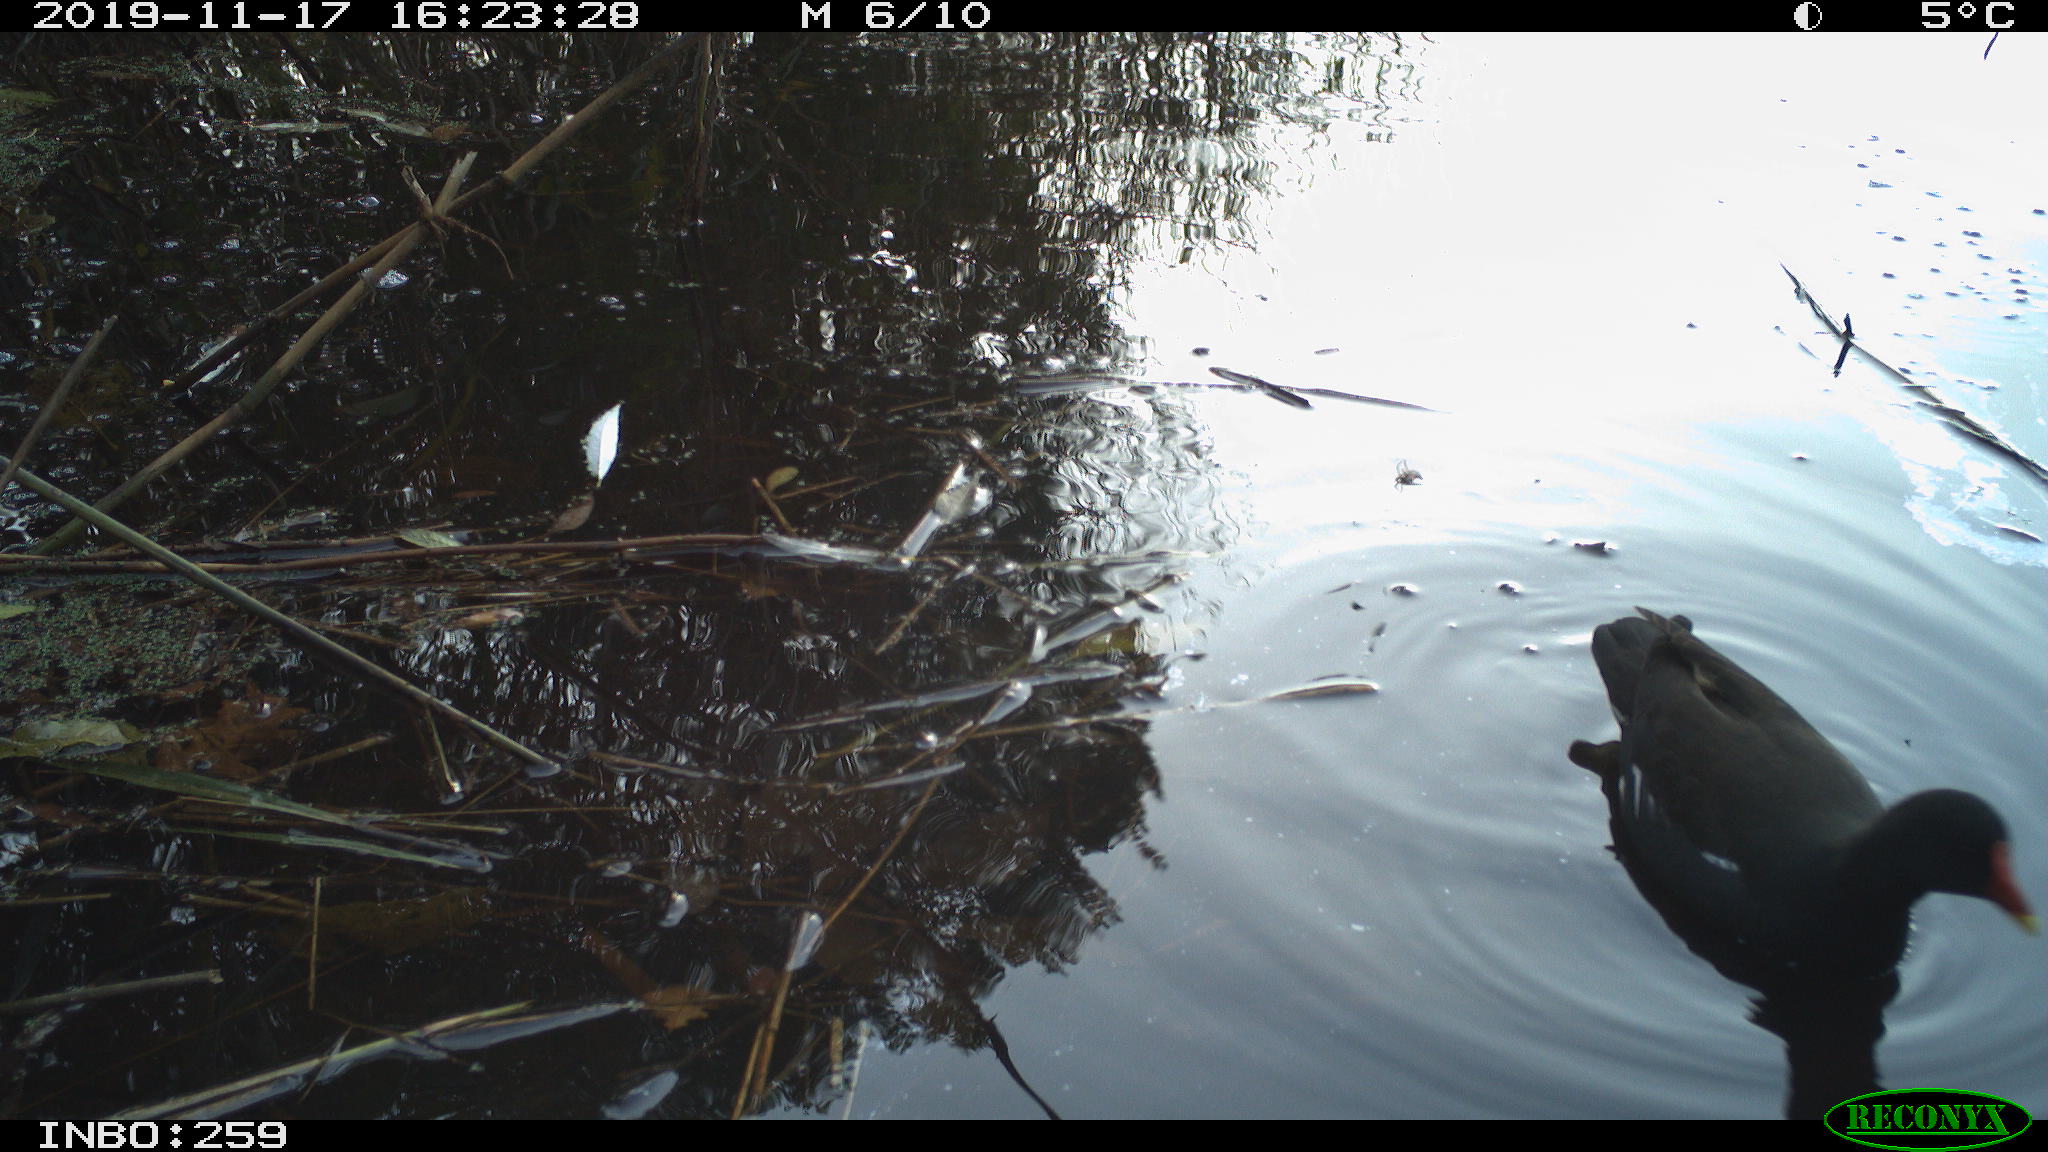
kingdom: Animalia
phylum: Chordata
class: Aves
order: Gruiformes
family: Rallidae
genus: Gallinula
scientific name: Gallinula chloropus
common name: Common moorhen
